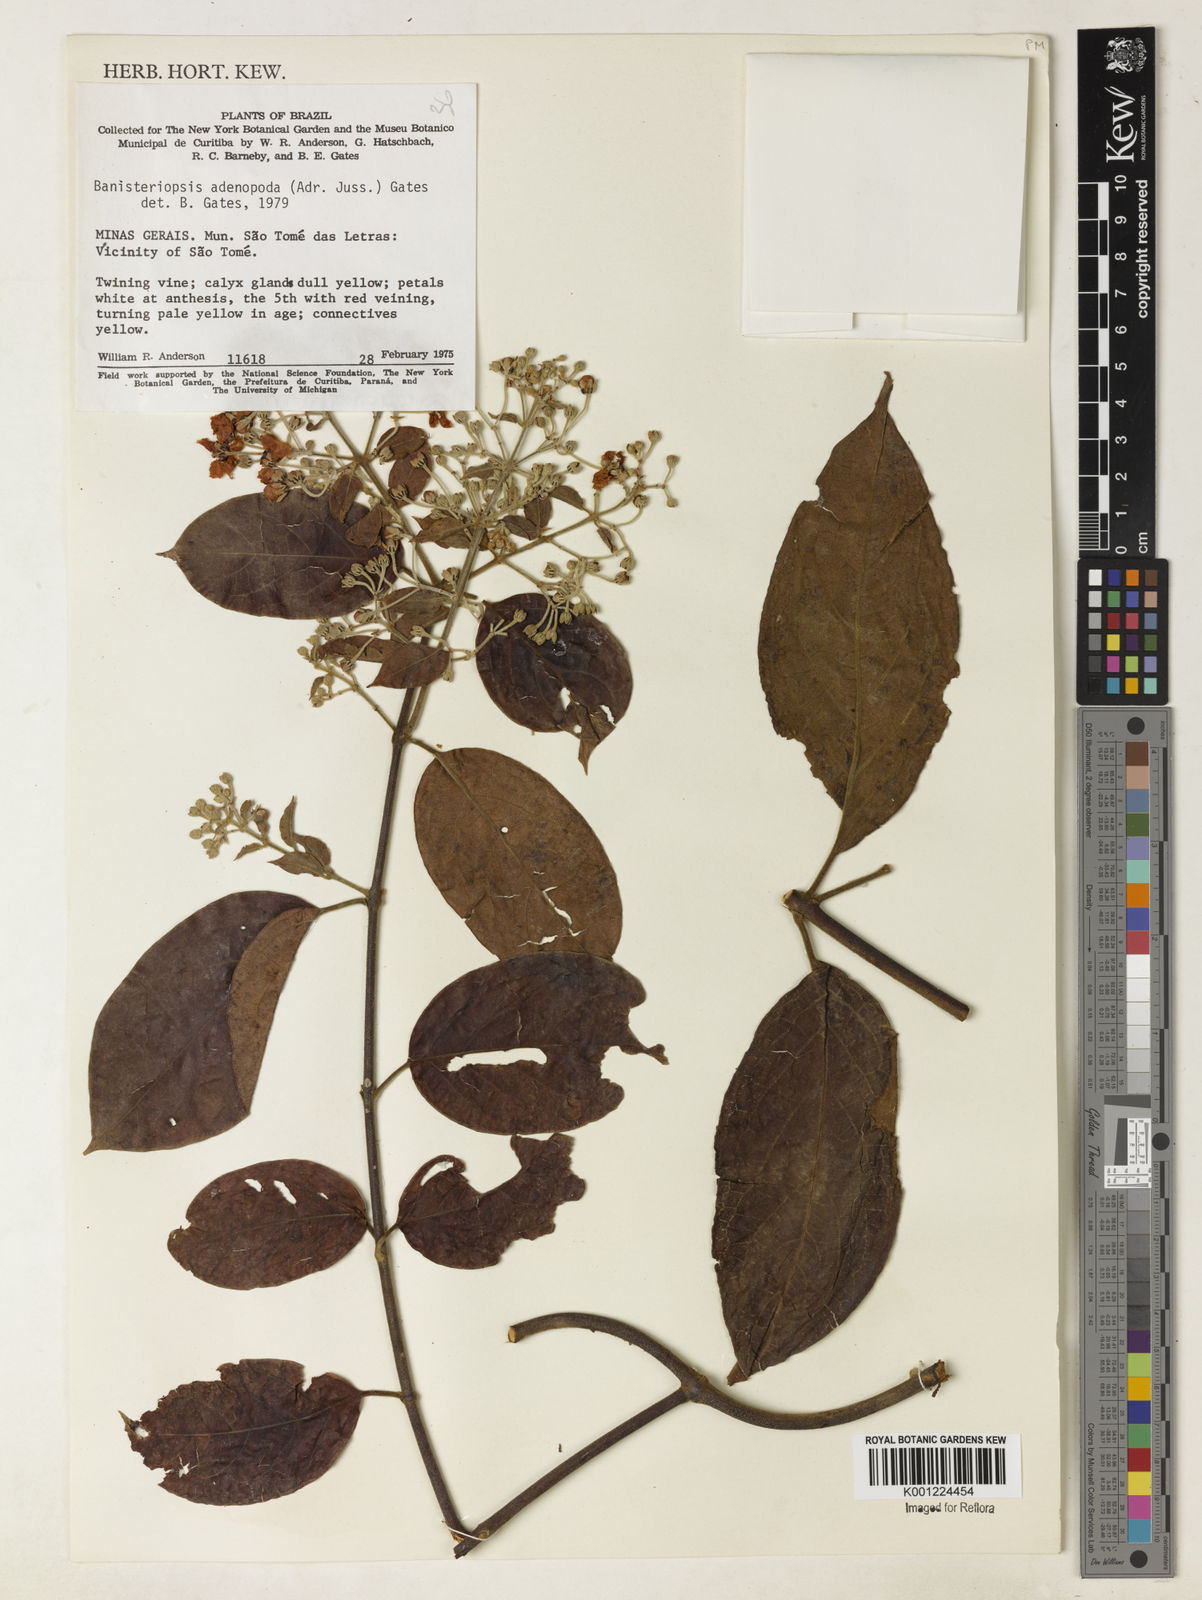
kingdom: Plantae
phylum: Tracheophyta
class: Magnoliopsida
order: Malpighiales
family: Malpighiaceae
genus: Banisteriopsis
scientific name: Banisteriopsis adenopoda
